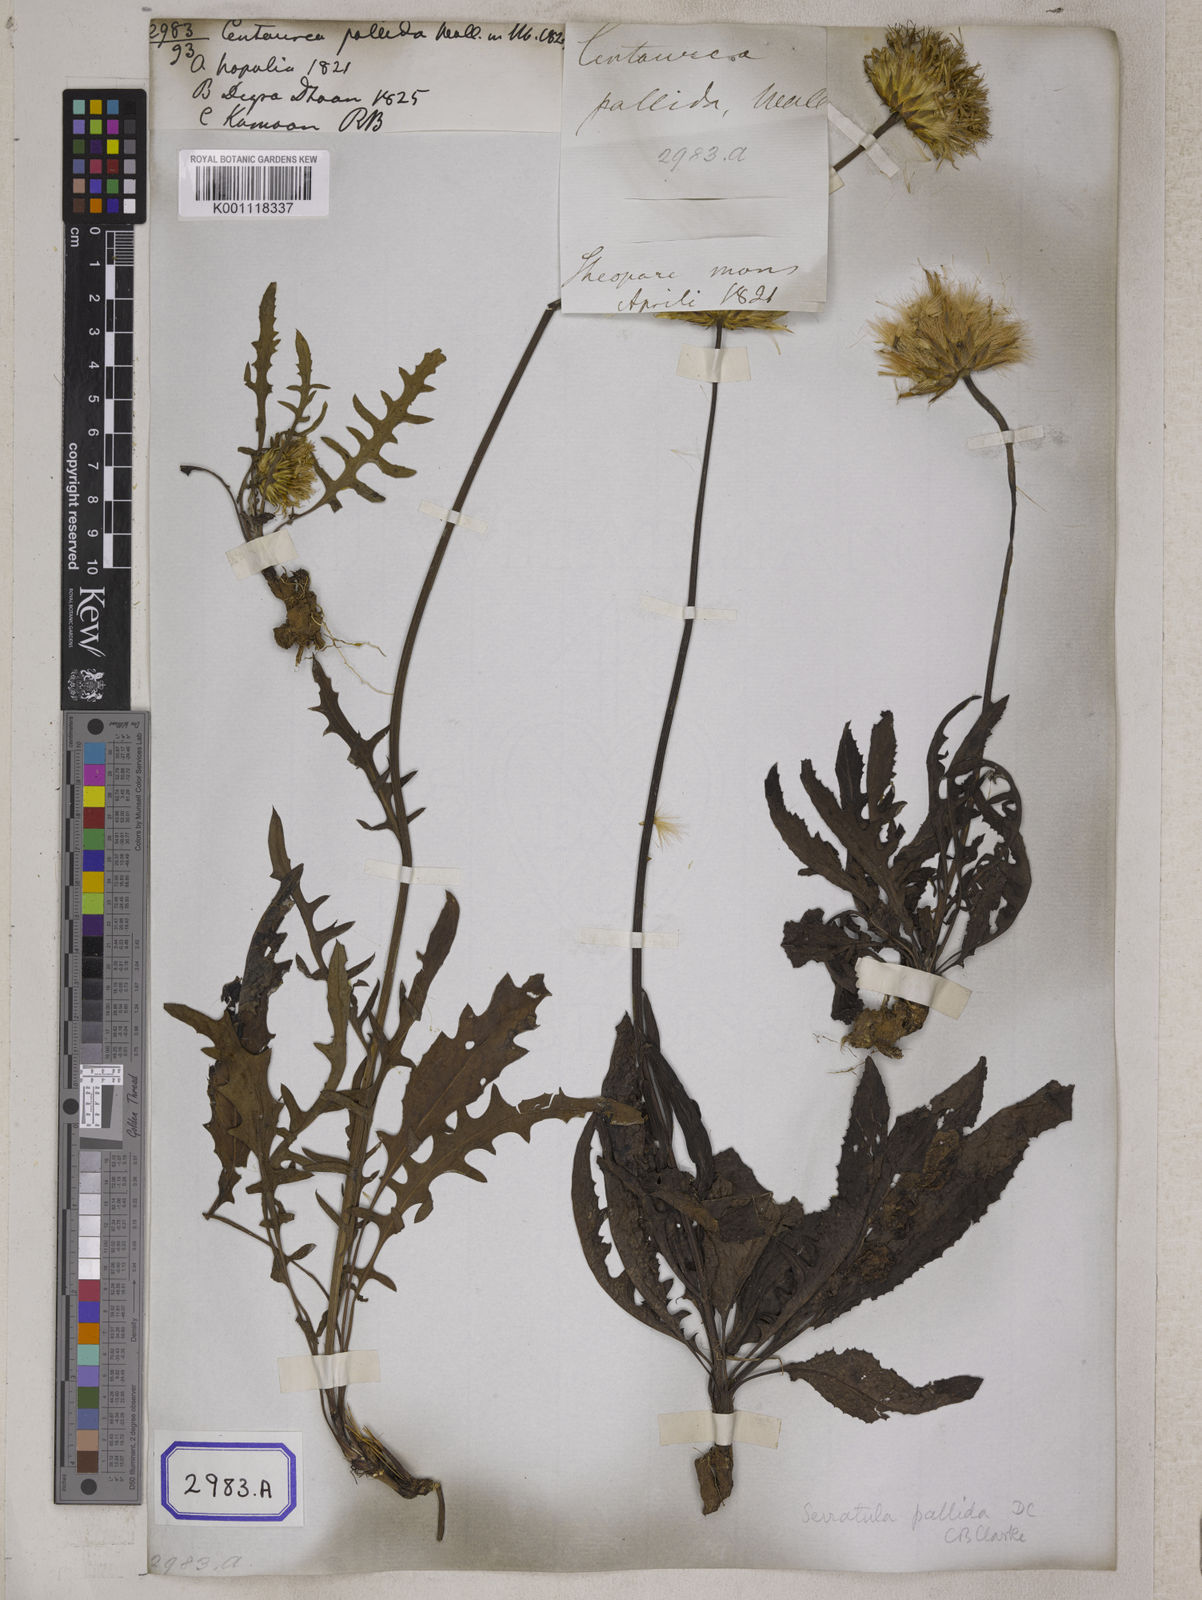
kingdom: Plantae
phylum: Tracheophyta
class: Magnoliopsida
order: Asterales
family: Asteraceae
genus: Centaurea
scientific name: Centaurea
